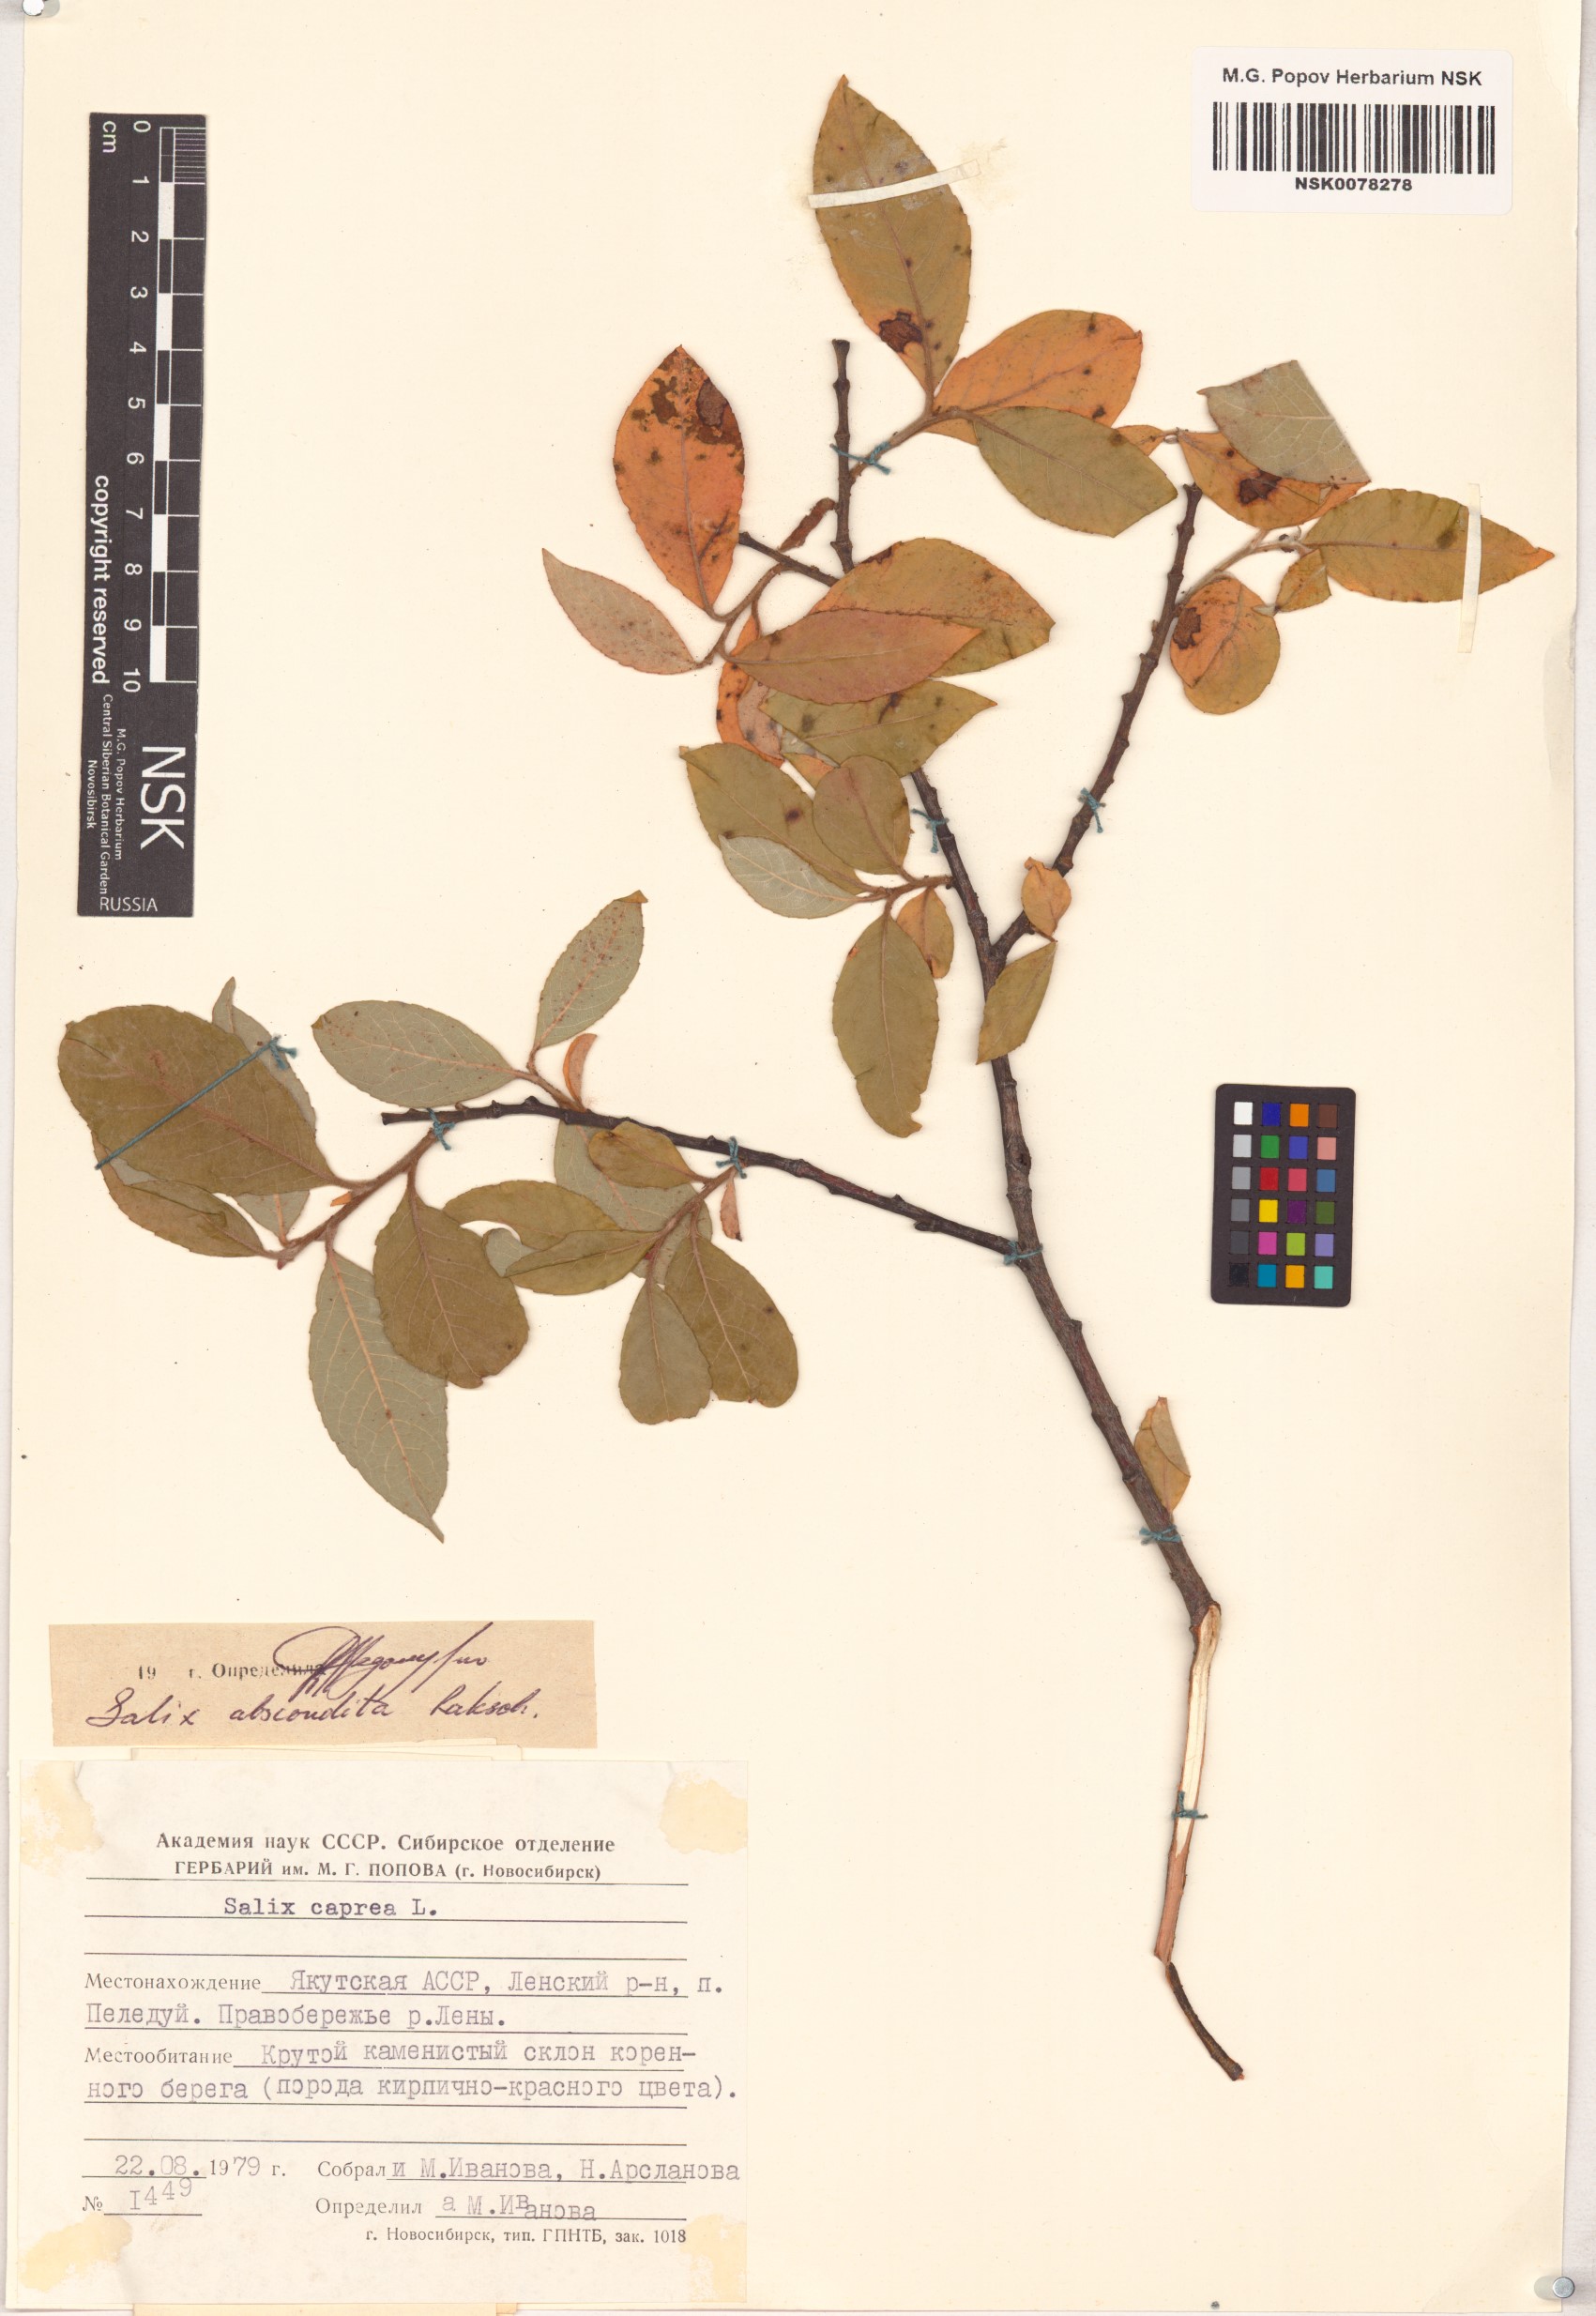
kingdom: Plantae
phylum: Tracheophyta
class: Magnoliopsida
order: Malpighiales
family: Salicaceae
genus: Salix
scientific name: Salix abscondita
